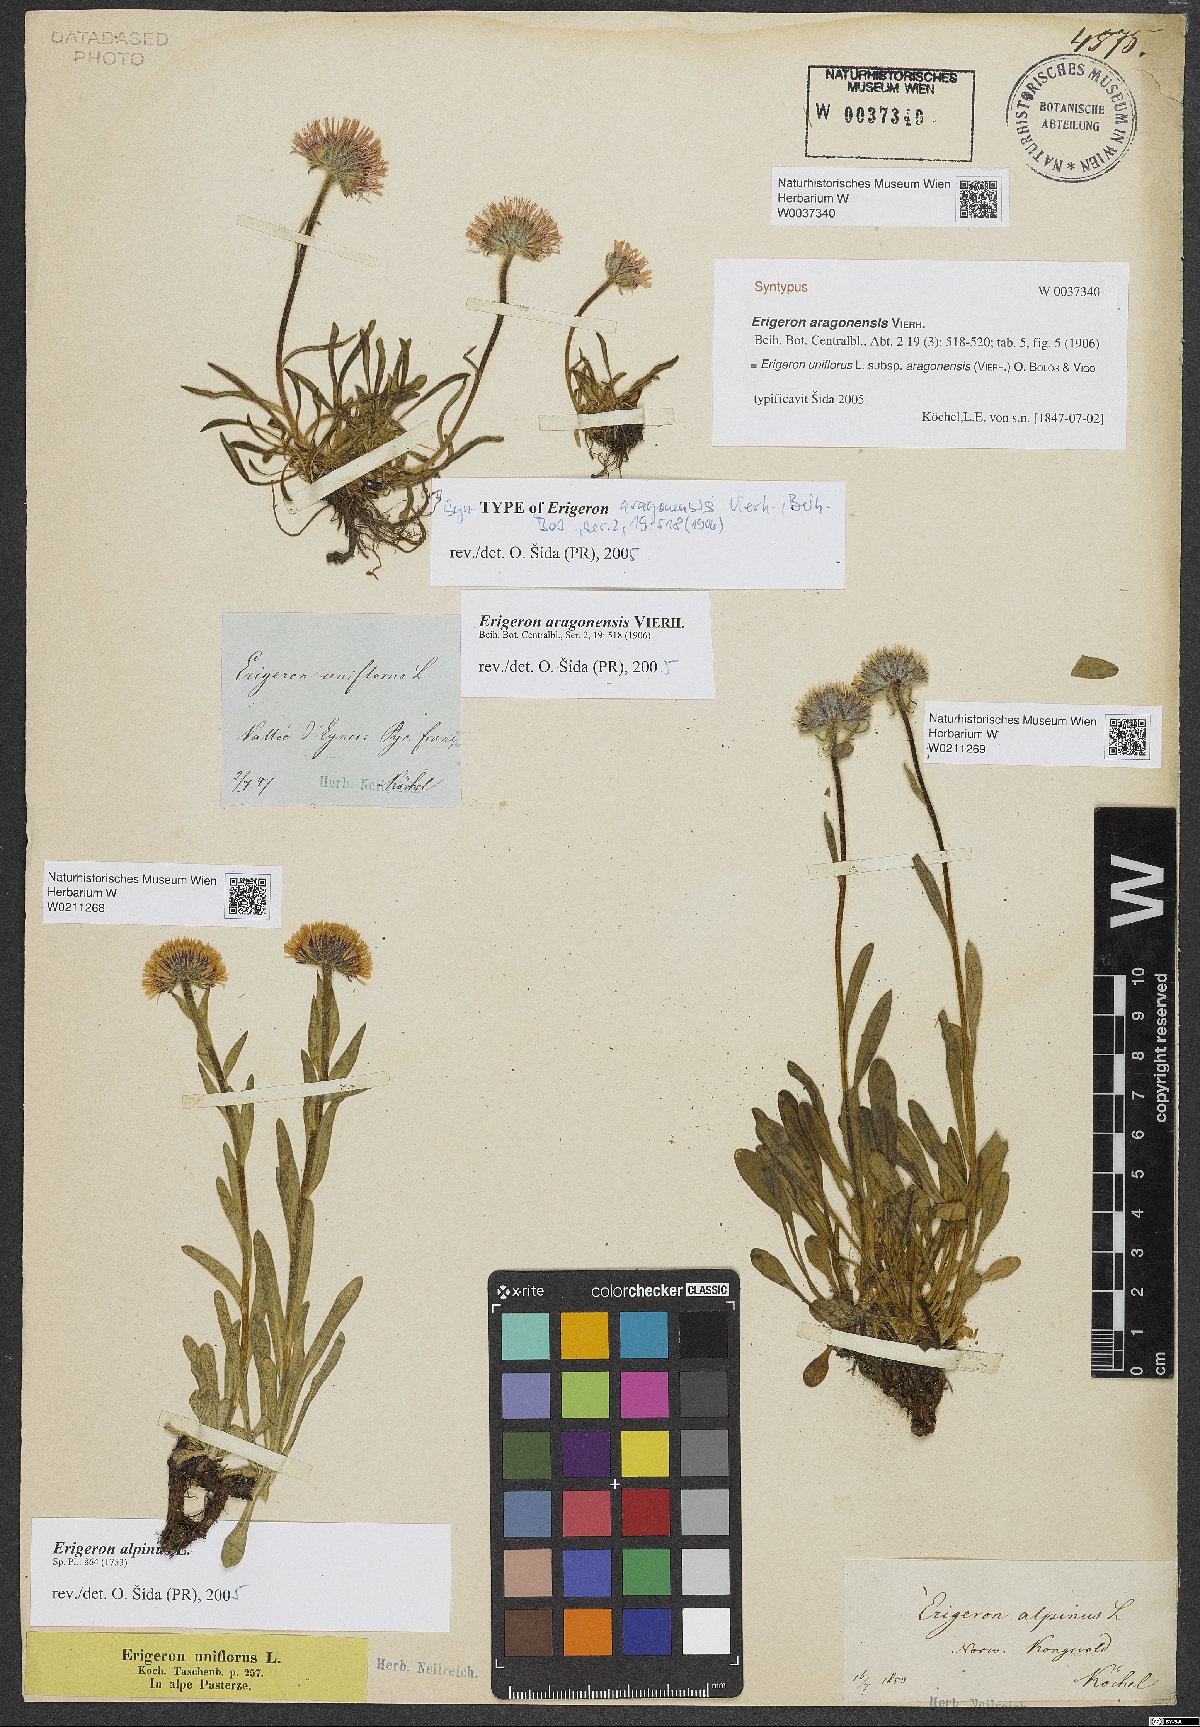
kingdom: Plantae
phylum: Tracheophyta
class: Magnoliopsida
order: Asterales
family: Asteraceae
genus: Erigeron
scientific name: Erigeron alpinus
